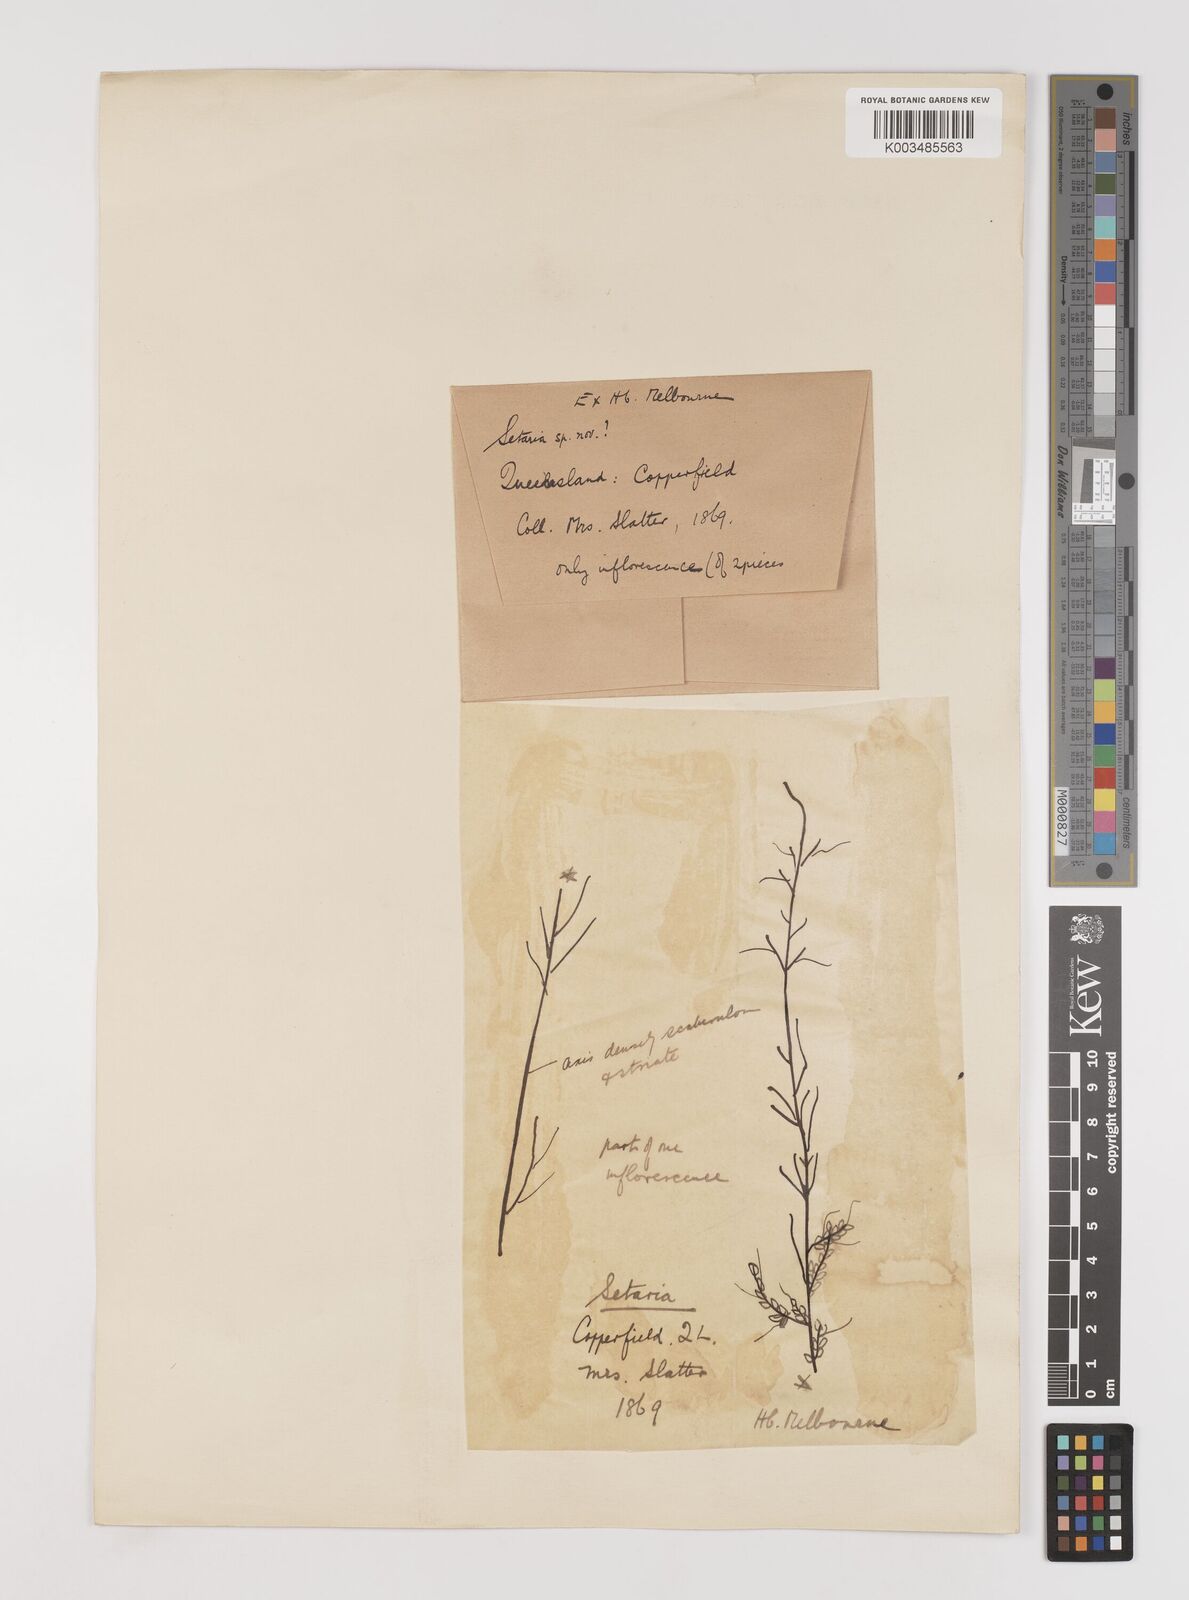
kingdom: Plantae
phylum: Tracheophyta
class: Liliopsida
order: Poales
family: Poaceae
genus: Setaria
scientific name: Setaria
